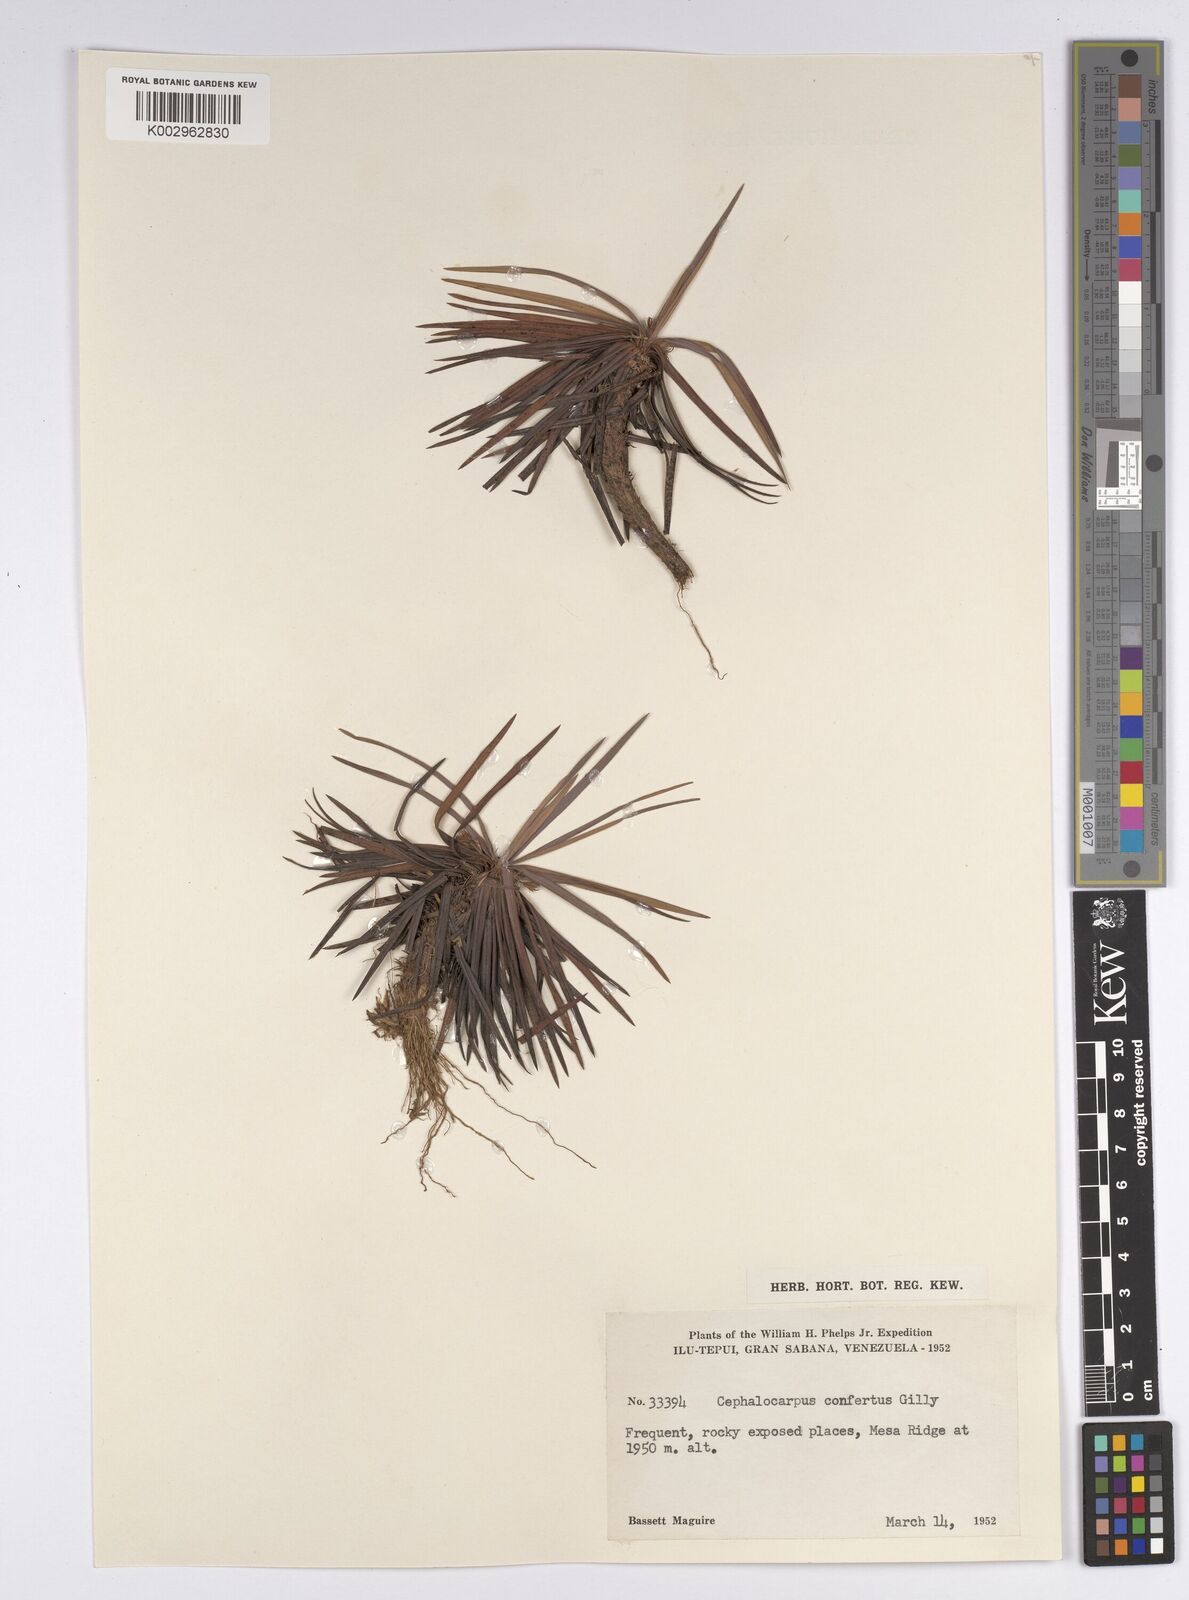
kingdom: Plantae
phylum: Tracheophyta
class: Liliopsida
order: Poales
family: Cyperaceae
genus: Cephalocarpus
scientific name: Cephalocarpus confertus
